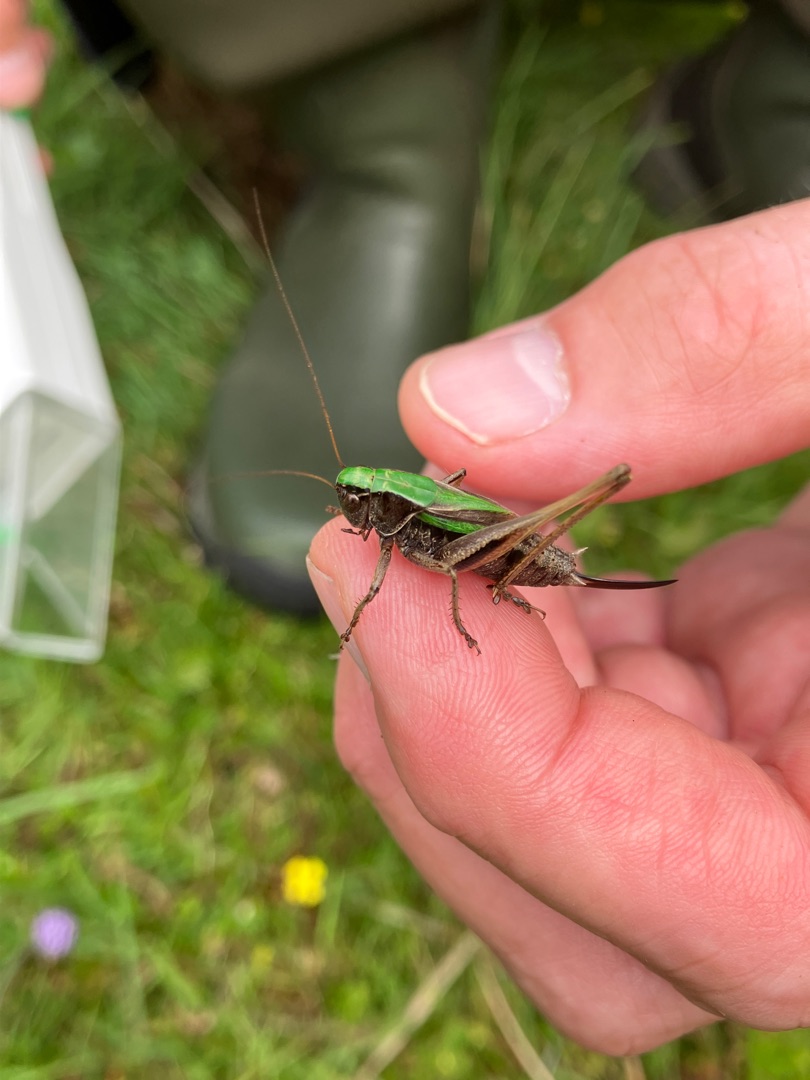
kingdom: Animalia
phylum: Arthropoda
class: Insecta
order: Orthoptera
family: Tettigoniidae
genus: Metrioptera
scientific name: Metrioptera brachyptera
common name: Hedegræshoppe
